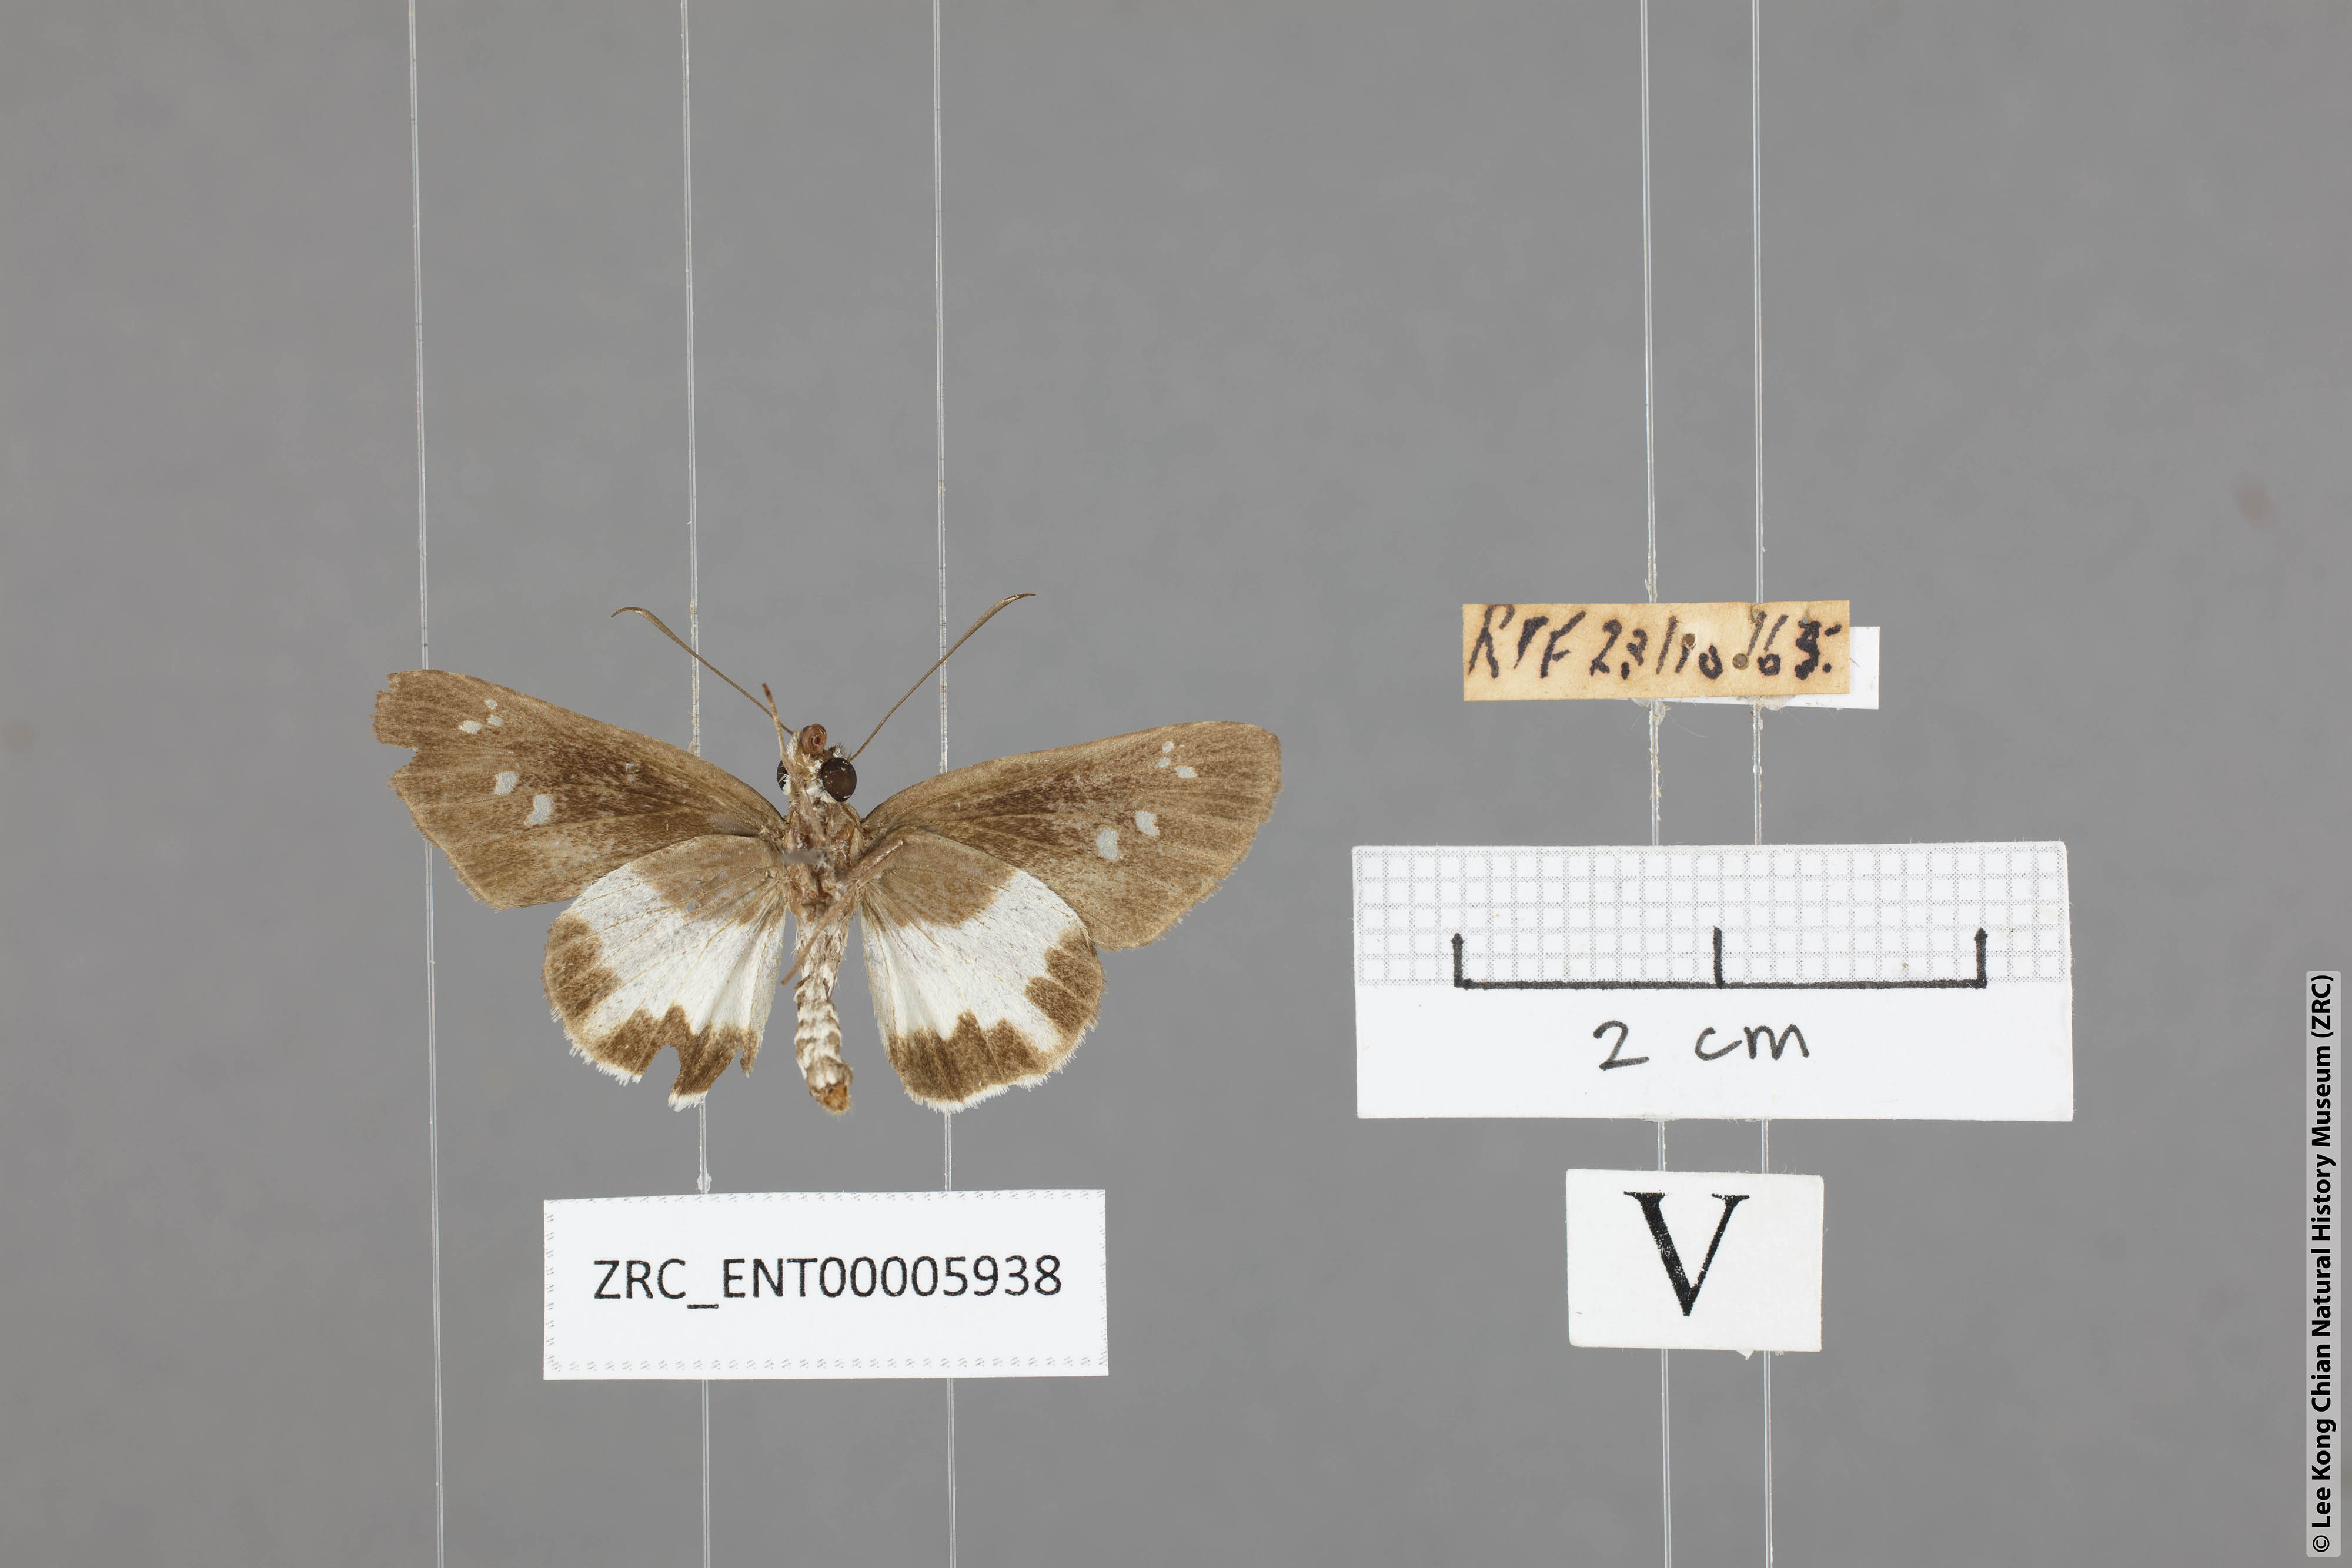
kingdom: Animalia
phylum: Arthropoda
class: Insecta
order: Lepidoptera
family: Hesperiidae
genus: Acerbas
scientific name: Acerbas anthea
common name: White palmer
